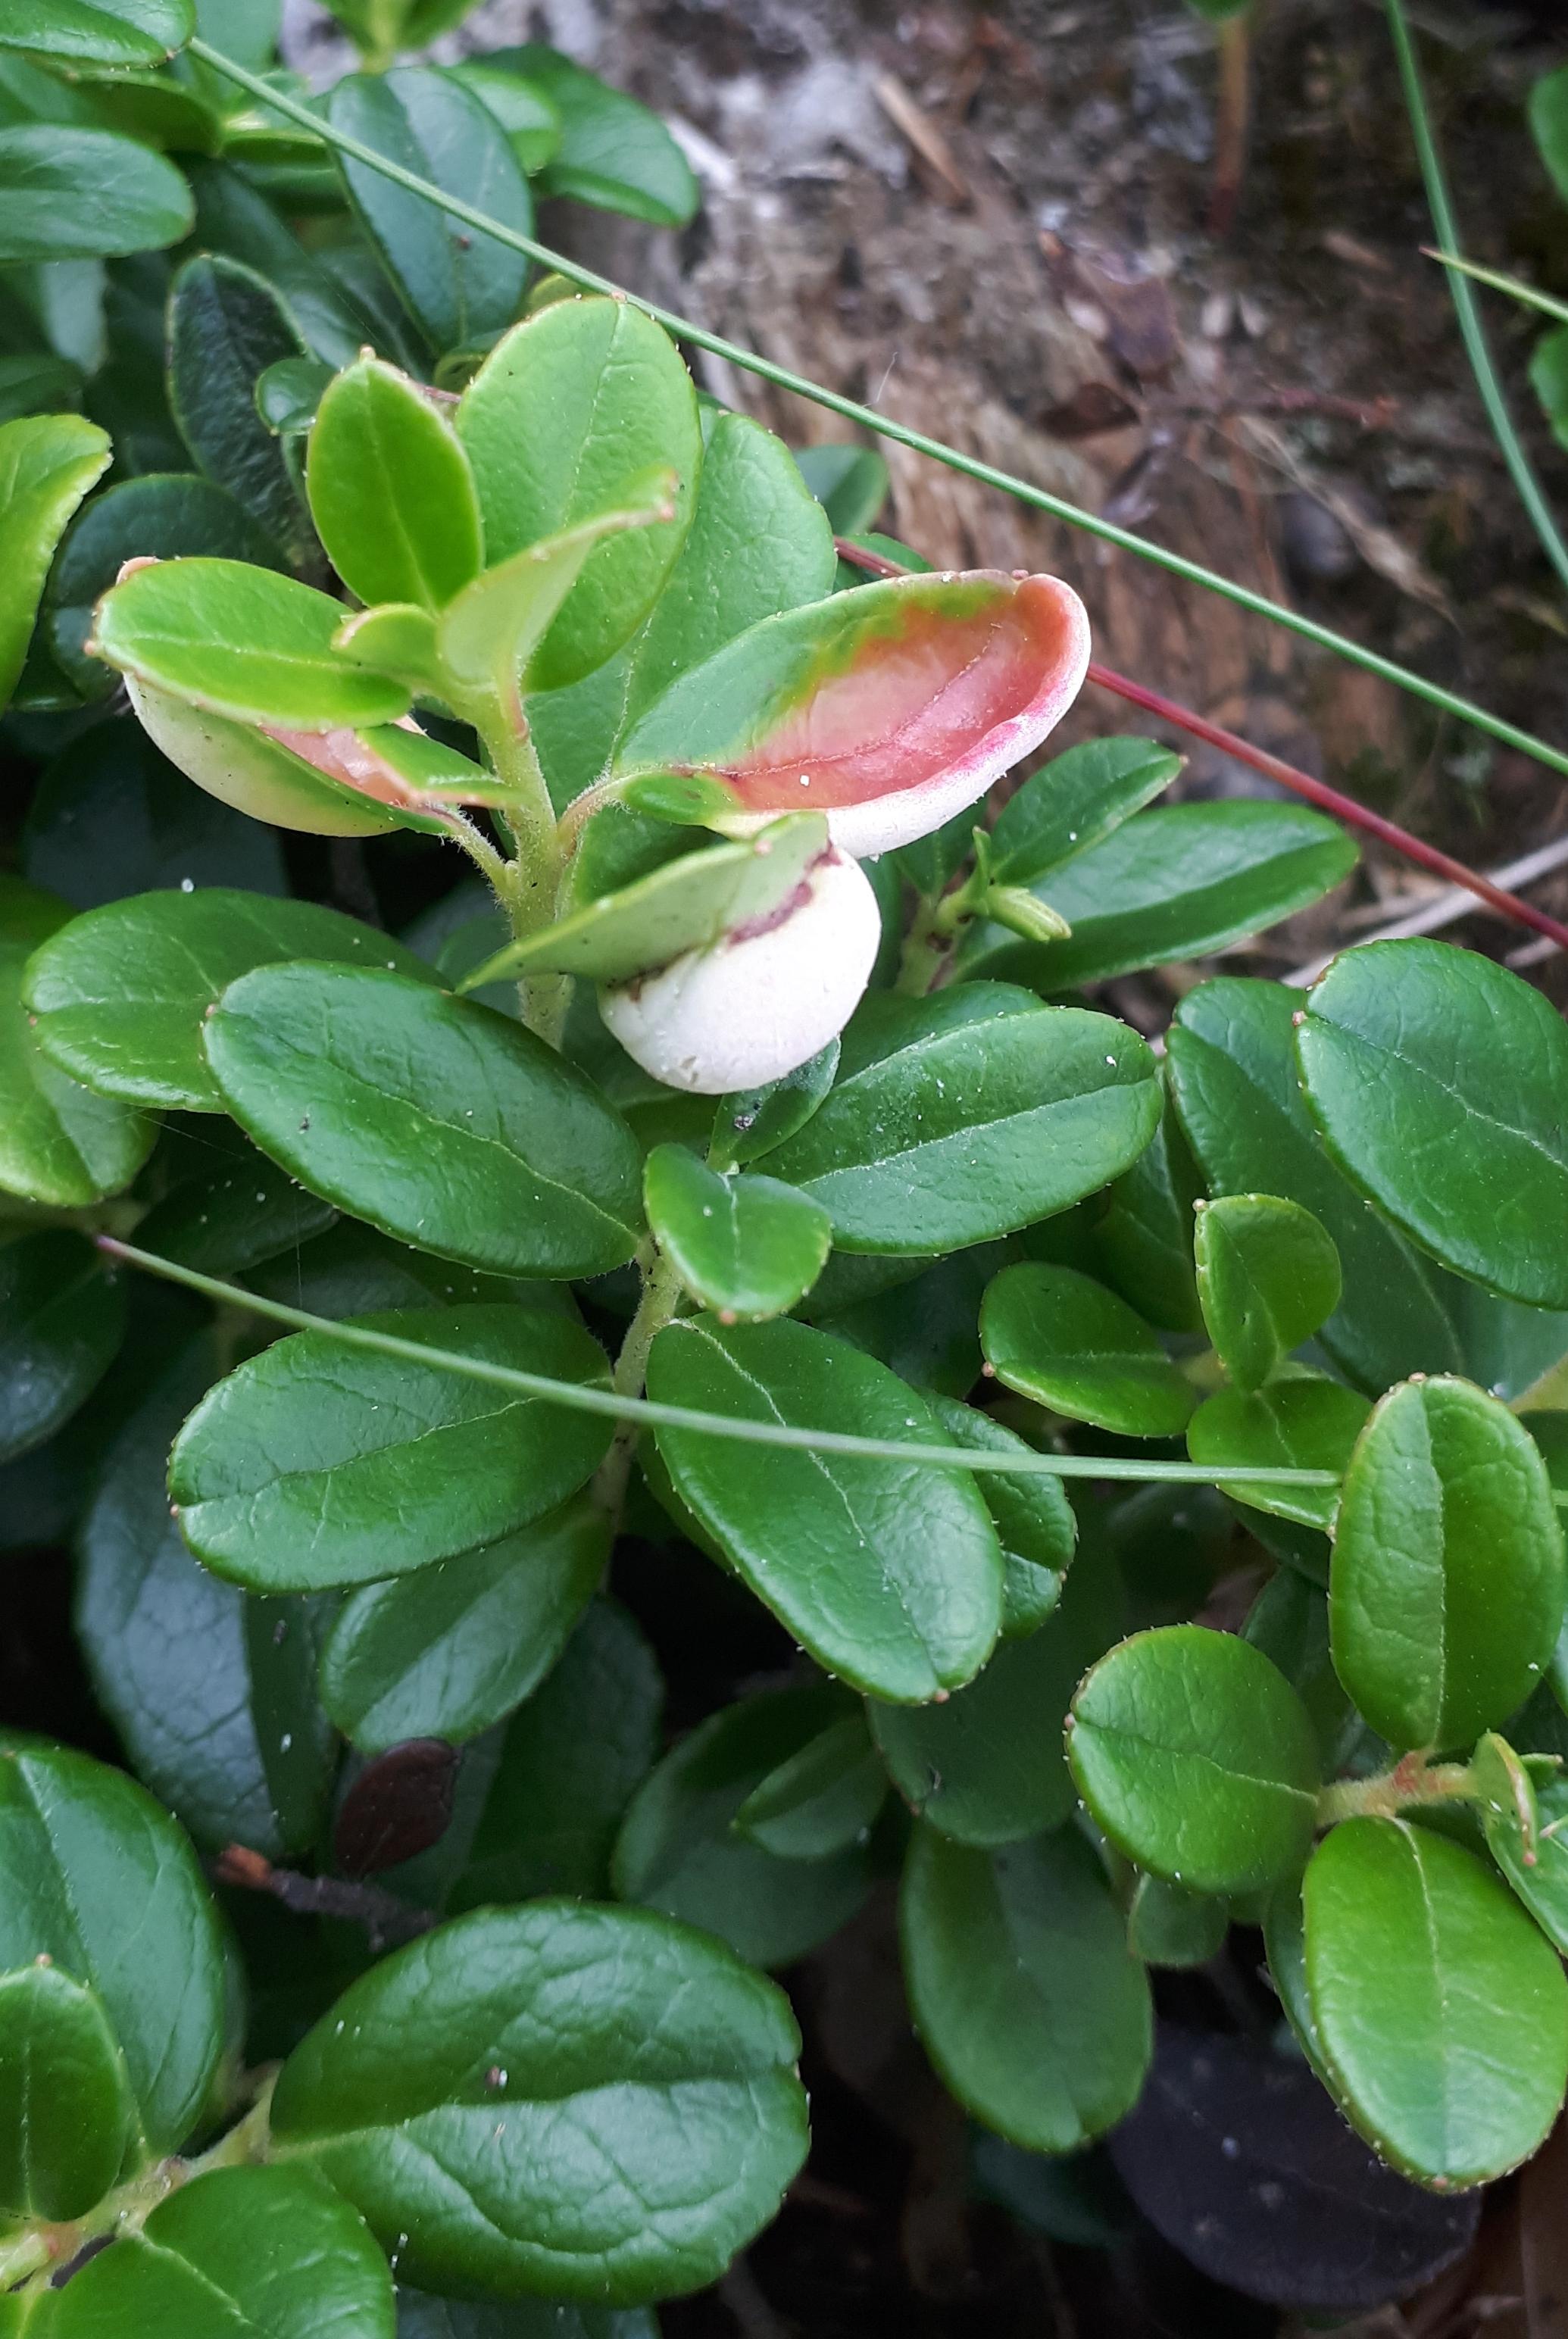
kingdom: Fungi
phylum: Basidiomycota
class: Exobasidiomycetes
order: Exobasidiales
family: Exobasidiaceae
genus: Exobasidium
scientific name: Exobasidium vaccinii
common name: tyttebærblad-bøllesvamp
